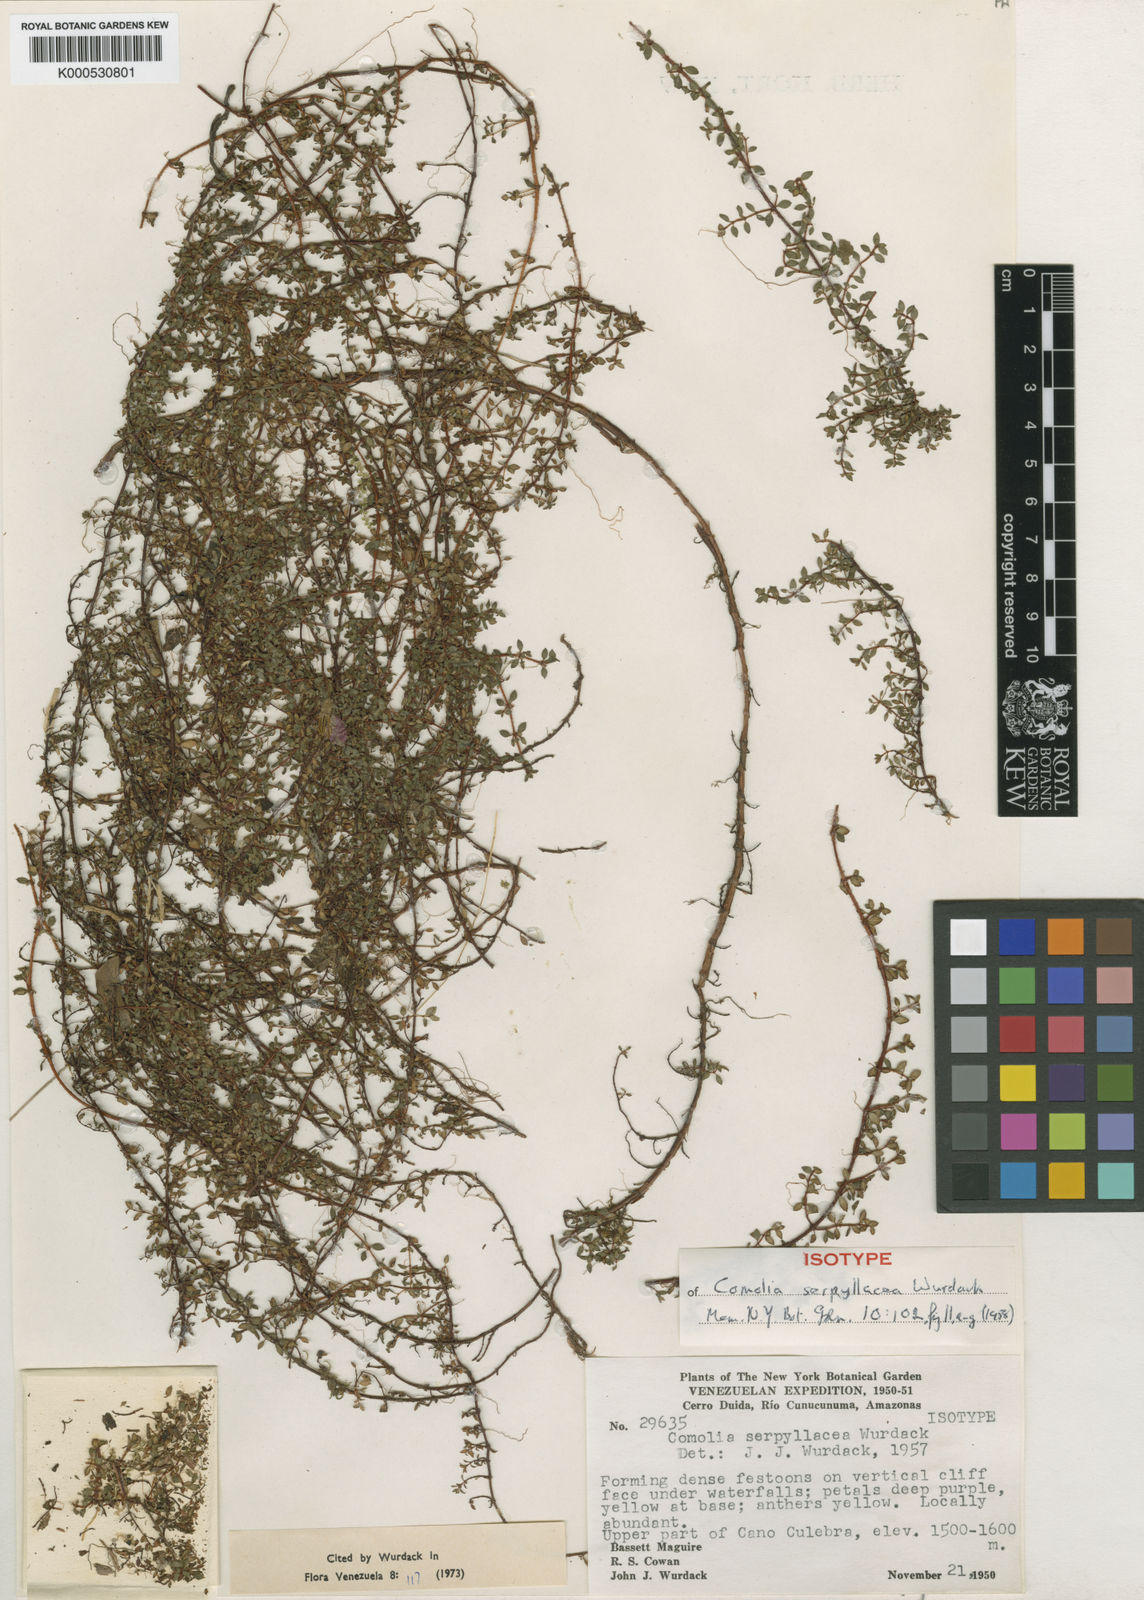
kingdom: Plantae
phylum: Tracheophyta
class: Magnoliopsida
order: Myrtales
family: Melastomataceae
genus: Comolia
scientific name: Comolia serpyllacea
